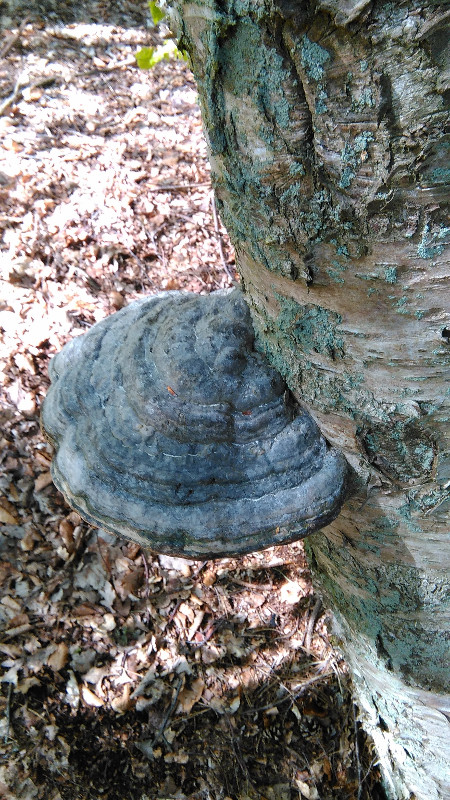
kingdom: Fungi
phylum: Basidiomycota
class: Agaricomycetes
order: Polyporales
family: Polyporaceae
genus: Fomes
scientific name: Fomes fomentarius
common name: tøndersvamp
